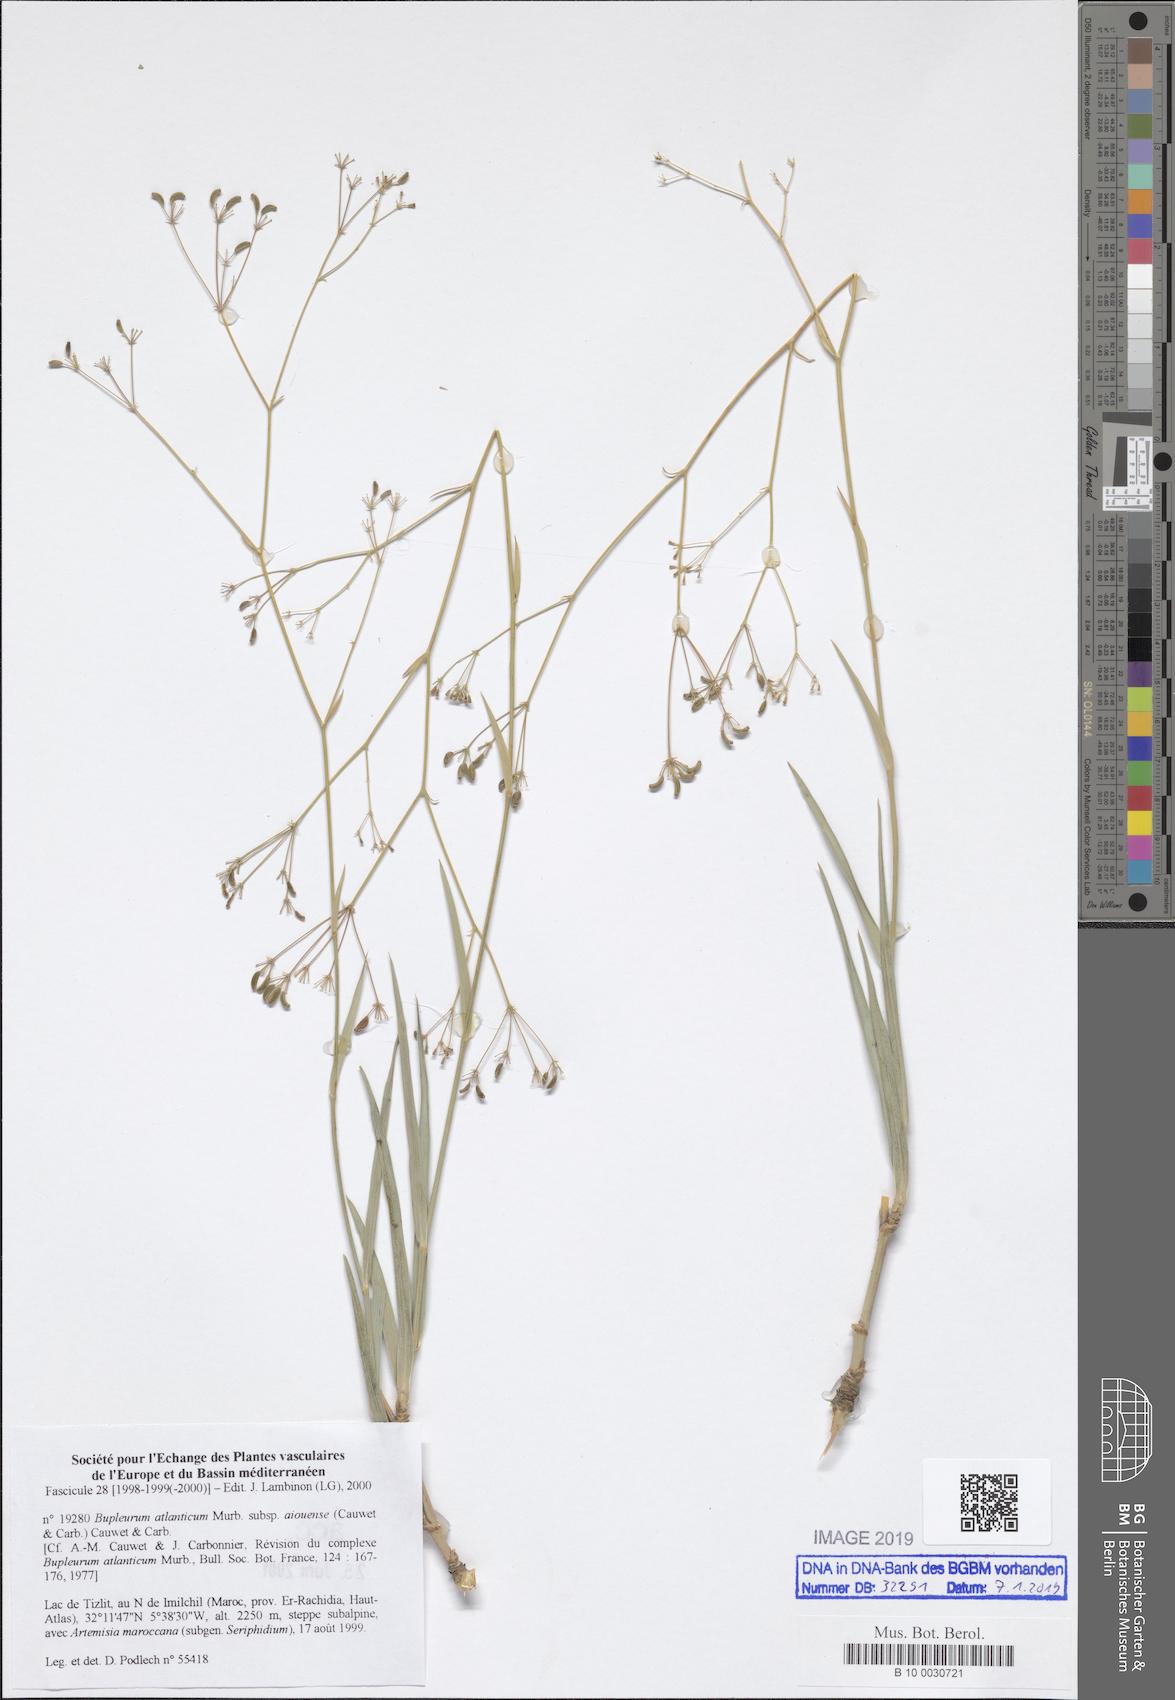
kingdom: Plantae
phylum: Tracheophyta
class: Magnoliopsida
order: Apiales
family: Apiaceae
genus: Bupleurum
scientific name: Bupleurum atlanticum
